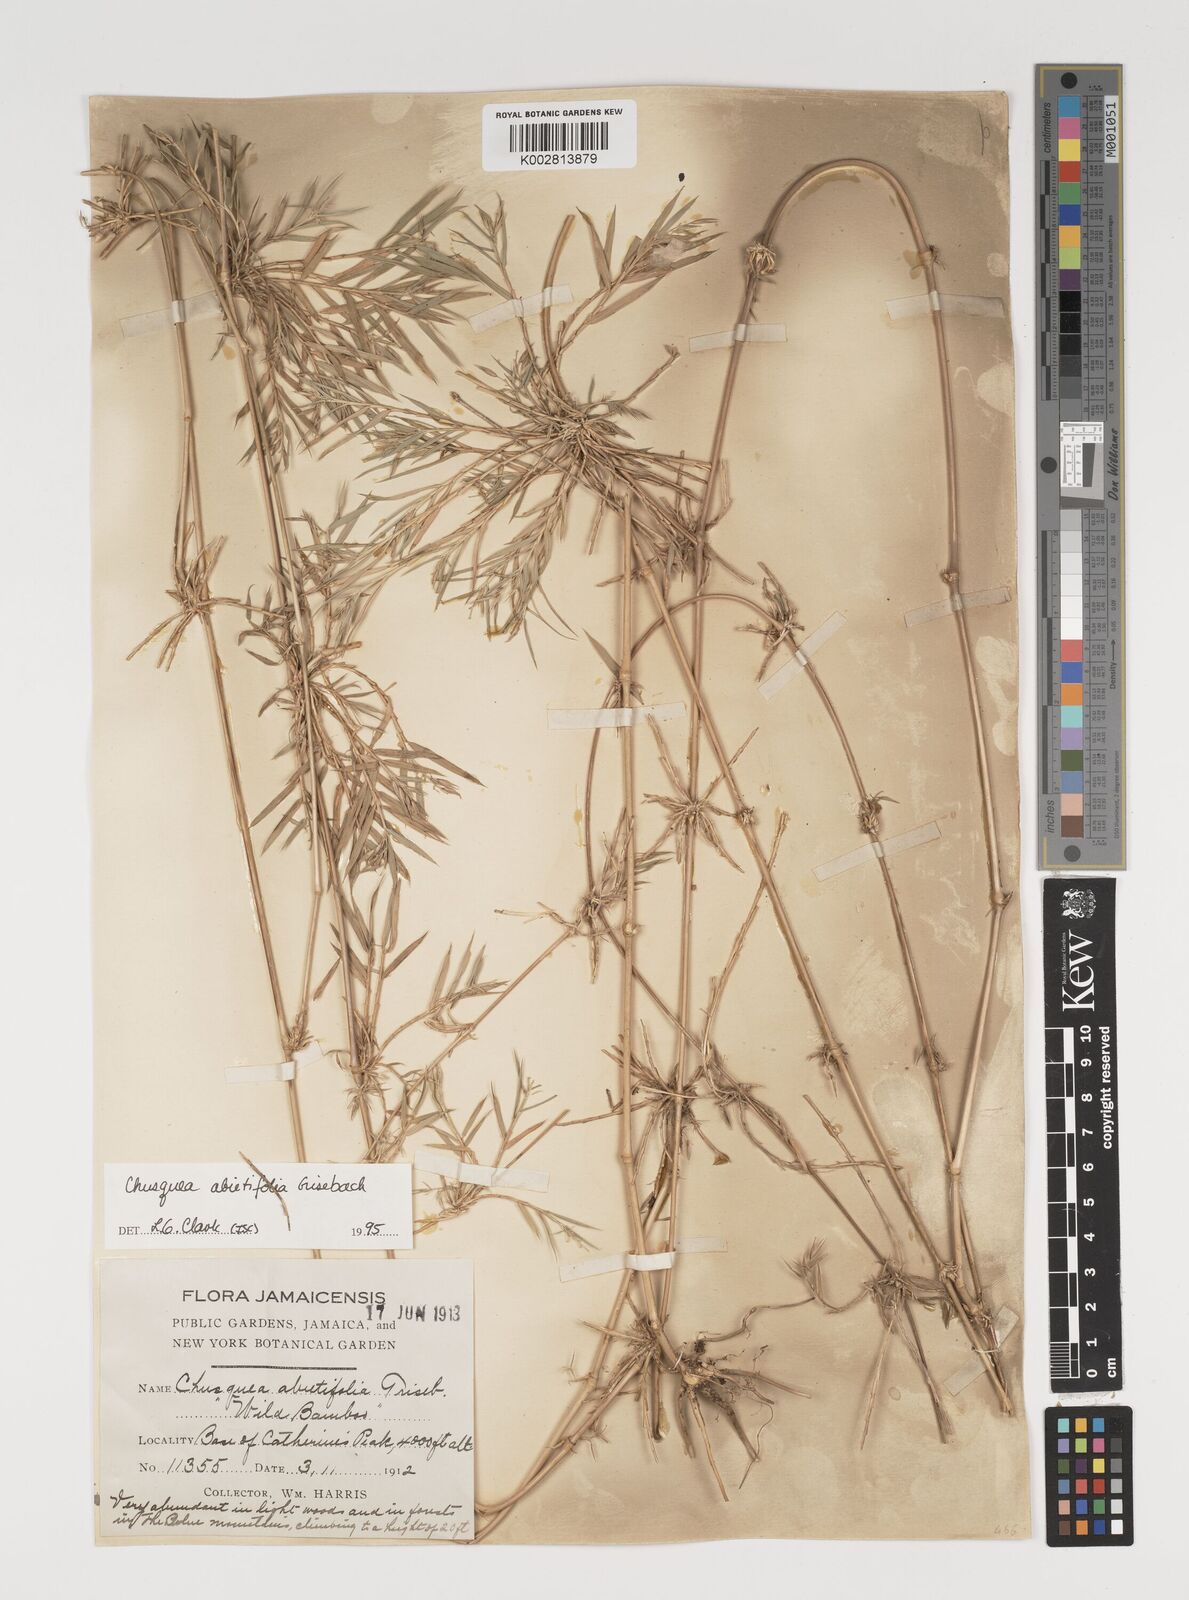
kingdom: Plantae
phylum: Tracheophyta
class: Liliopsida
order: Poales
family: Poaceae
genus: Chusquea
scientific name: Chusquea abietifolia
